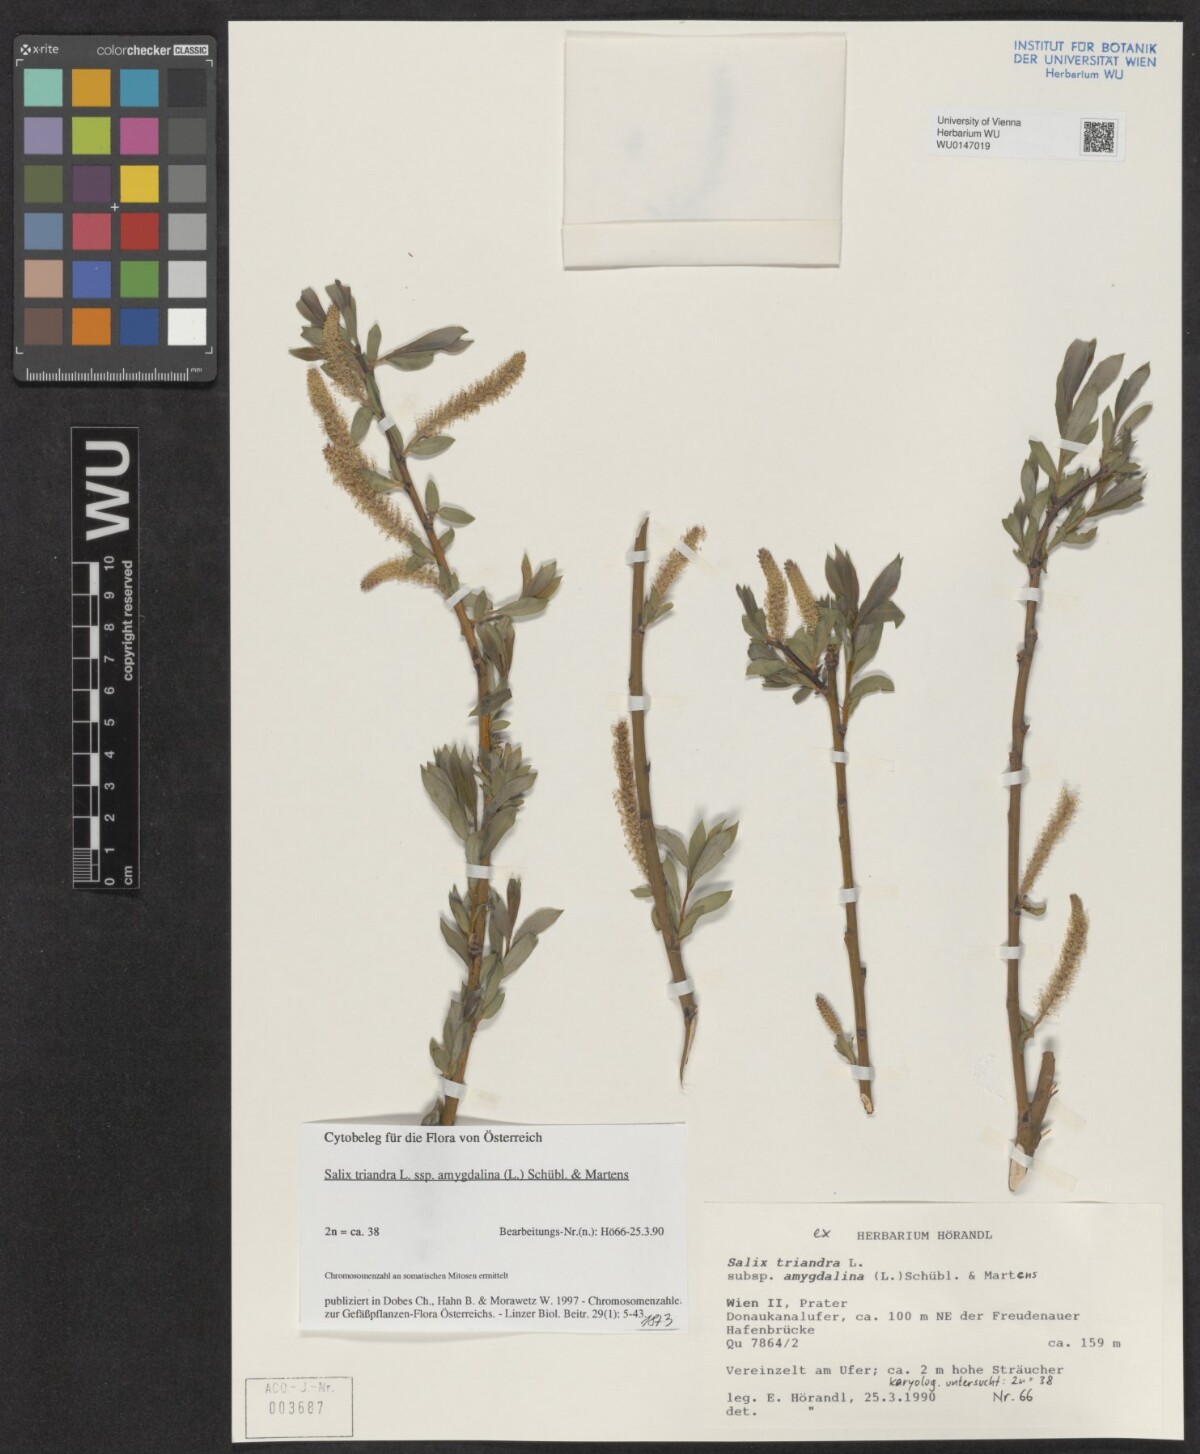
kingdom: Plantae
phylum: Tracheophyta
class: Magnoliopsida
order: Malpighiales
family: Salicaceae
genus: Salix
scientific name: Salix triandra
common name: Almond willow
